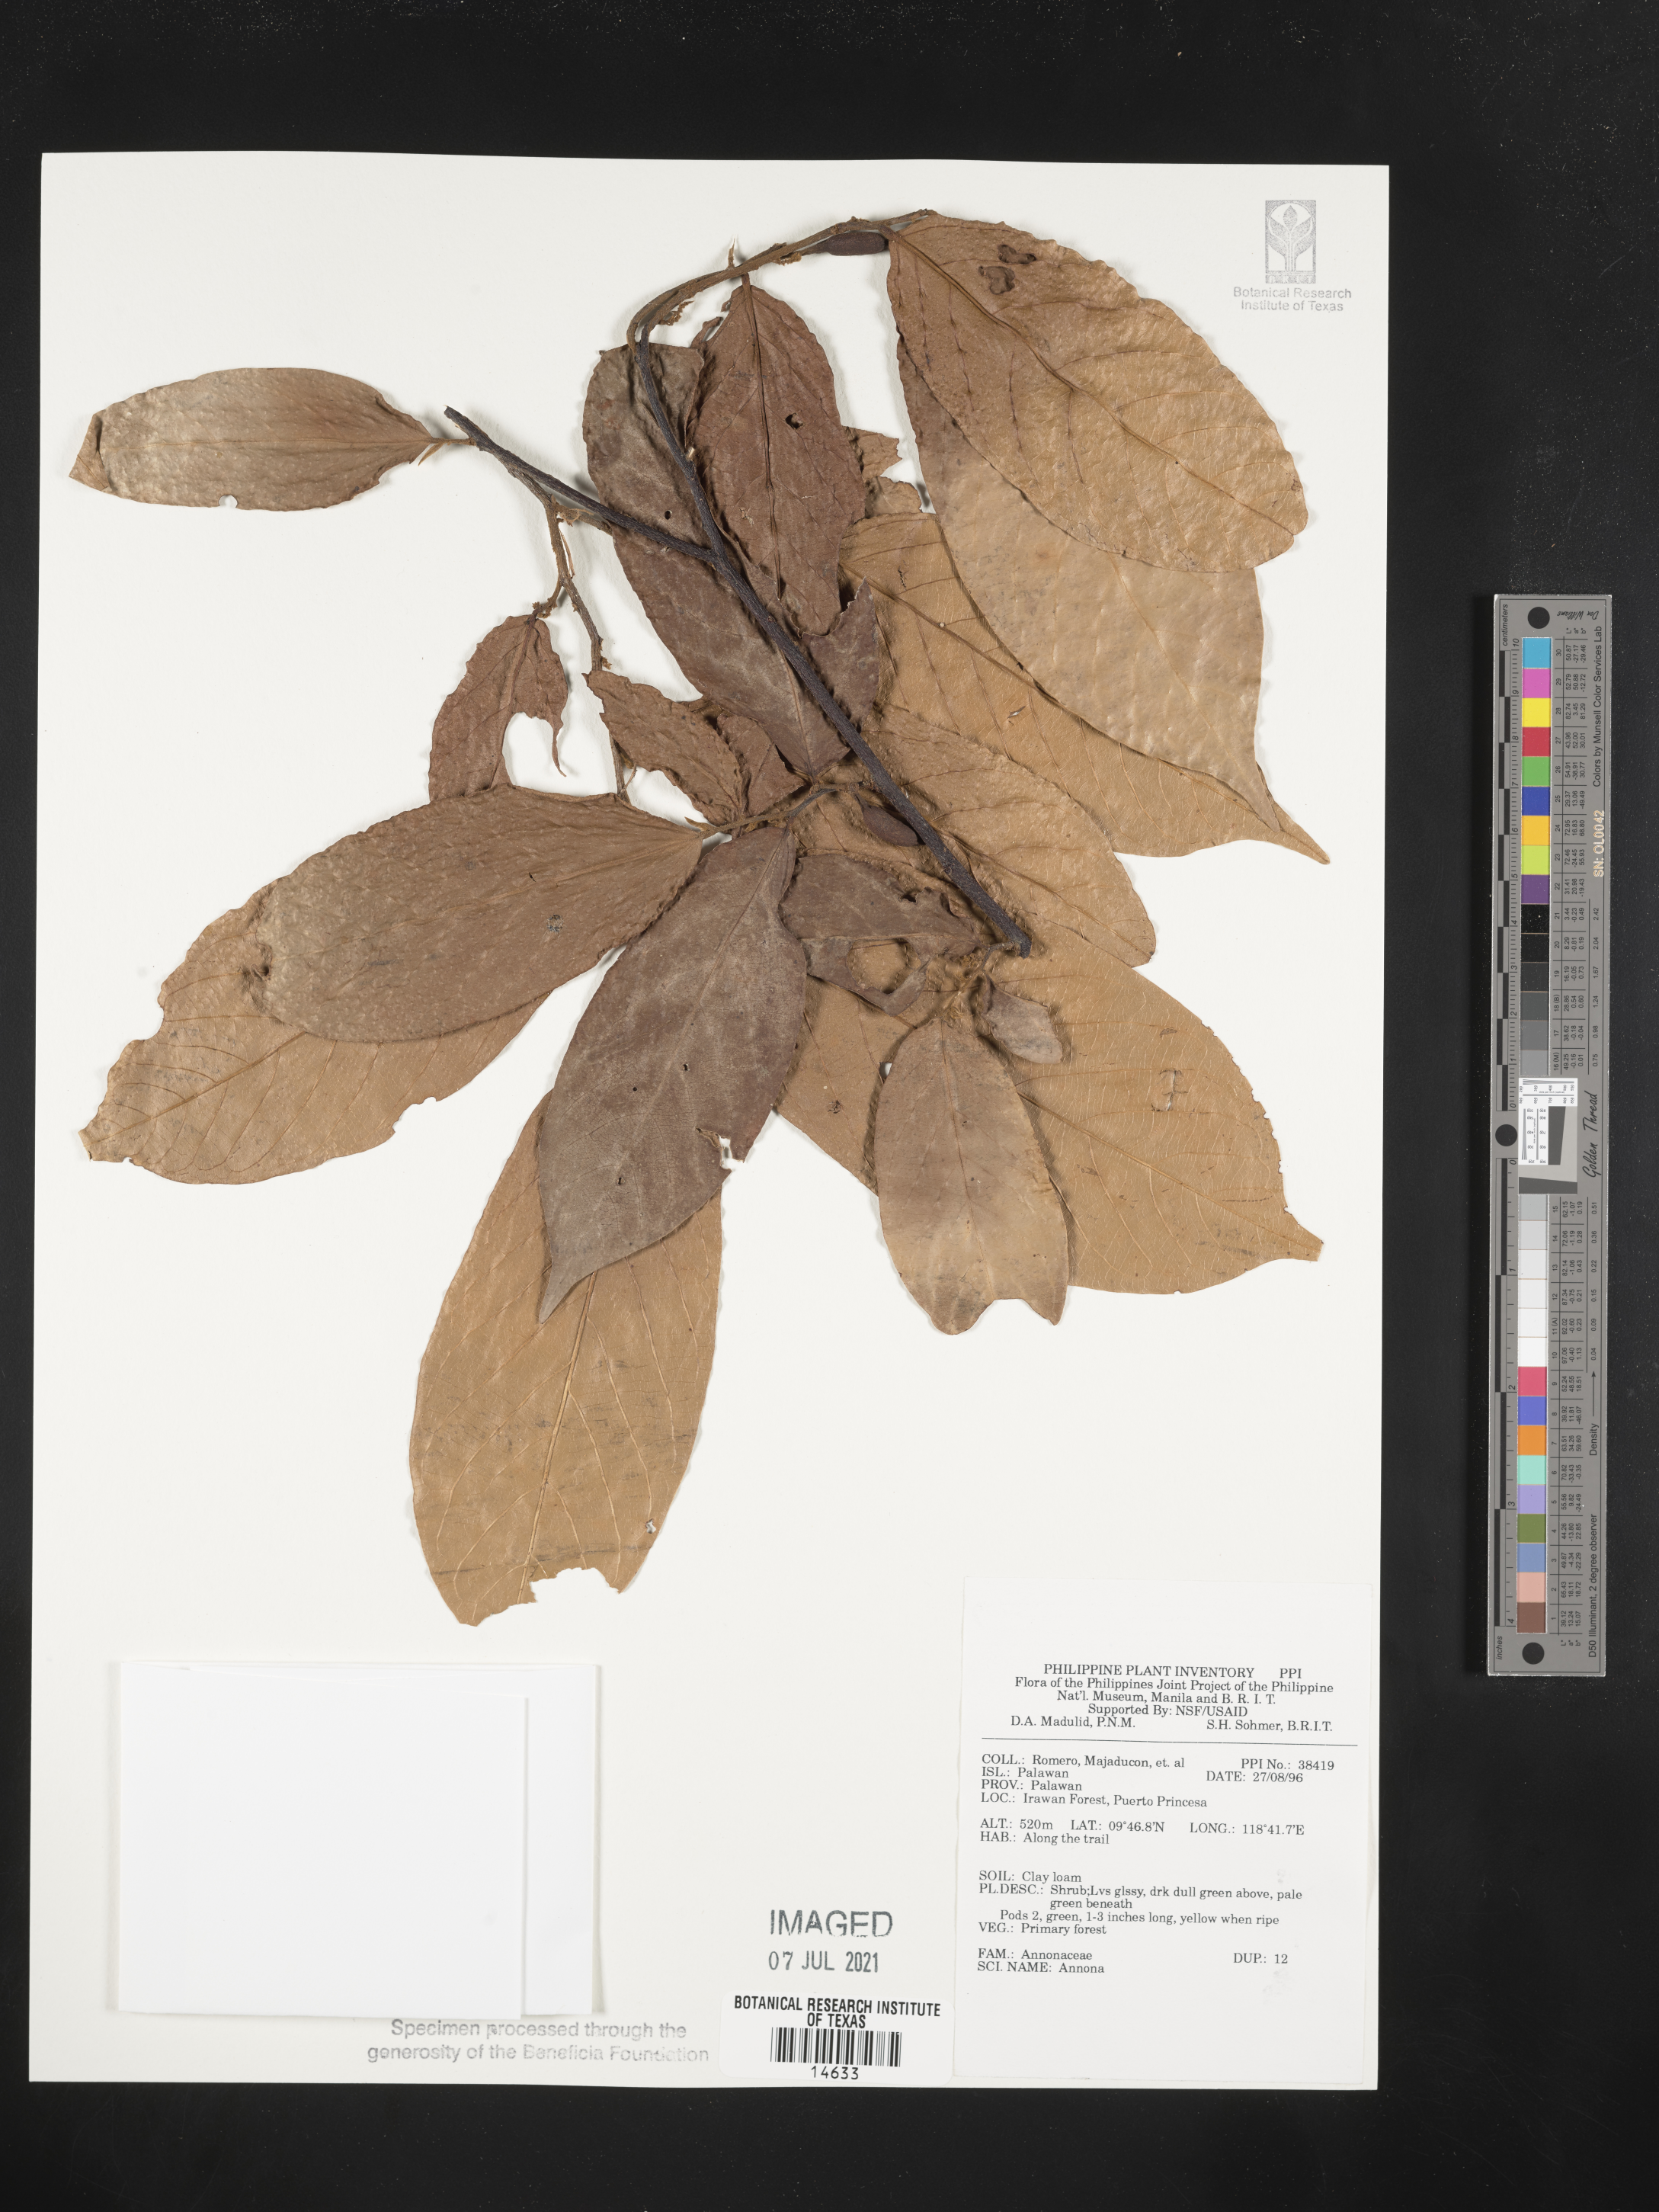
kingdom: Plantae
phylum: Tracheophyta
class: Magnoliopsida
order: Magnoliales
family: Annonaceae
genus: Annona
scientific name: Annona
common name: Anona
